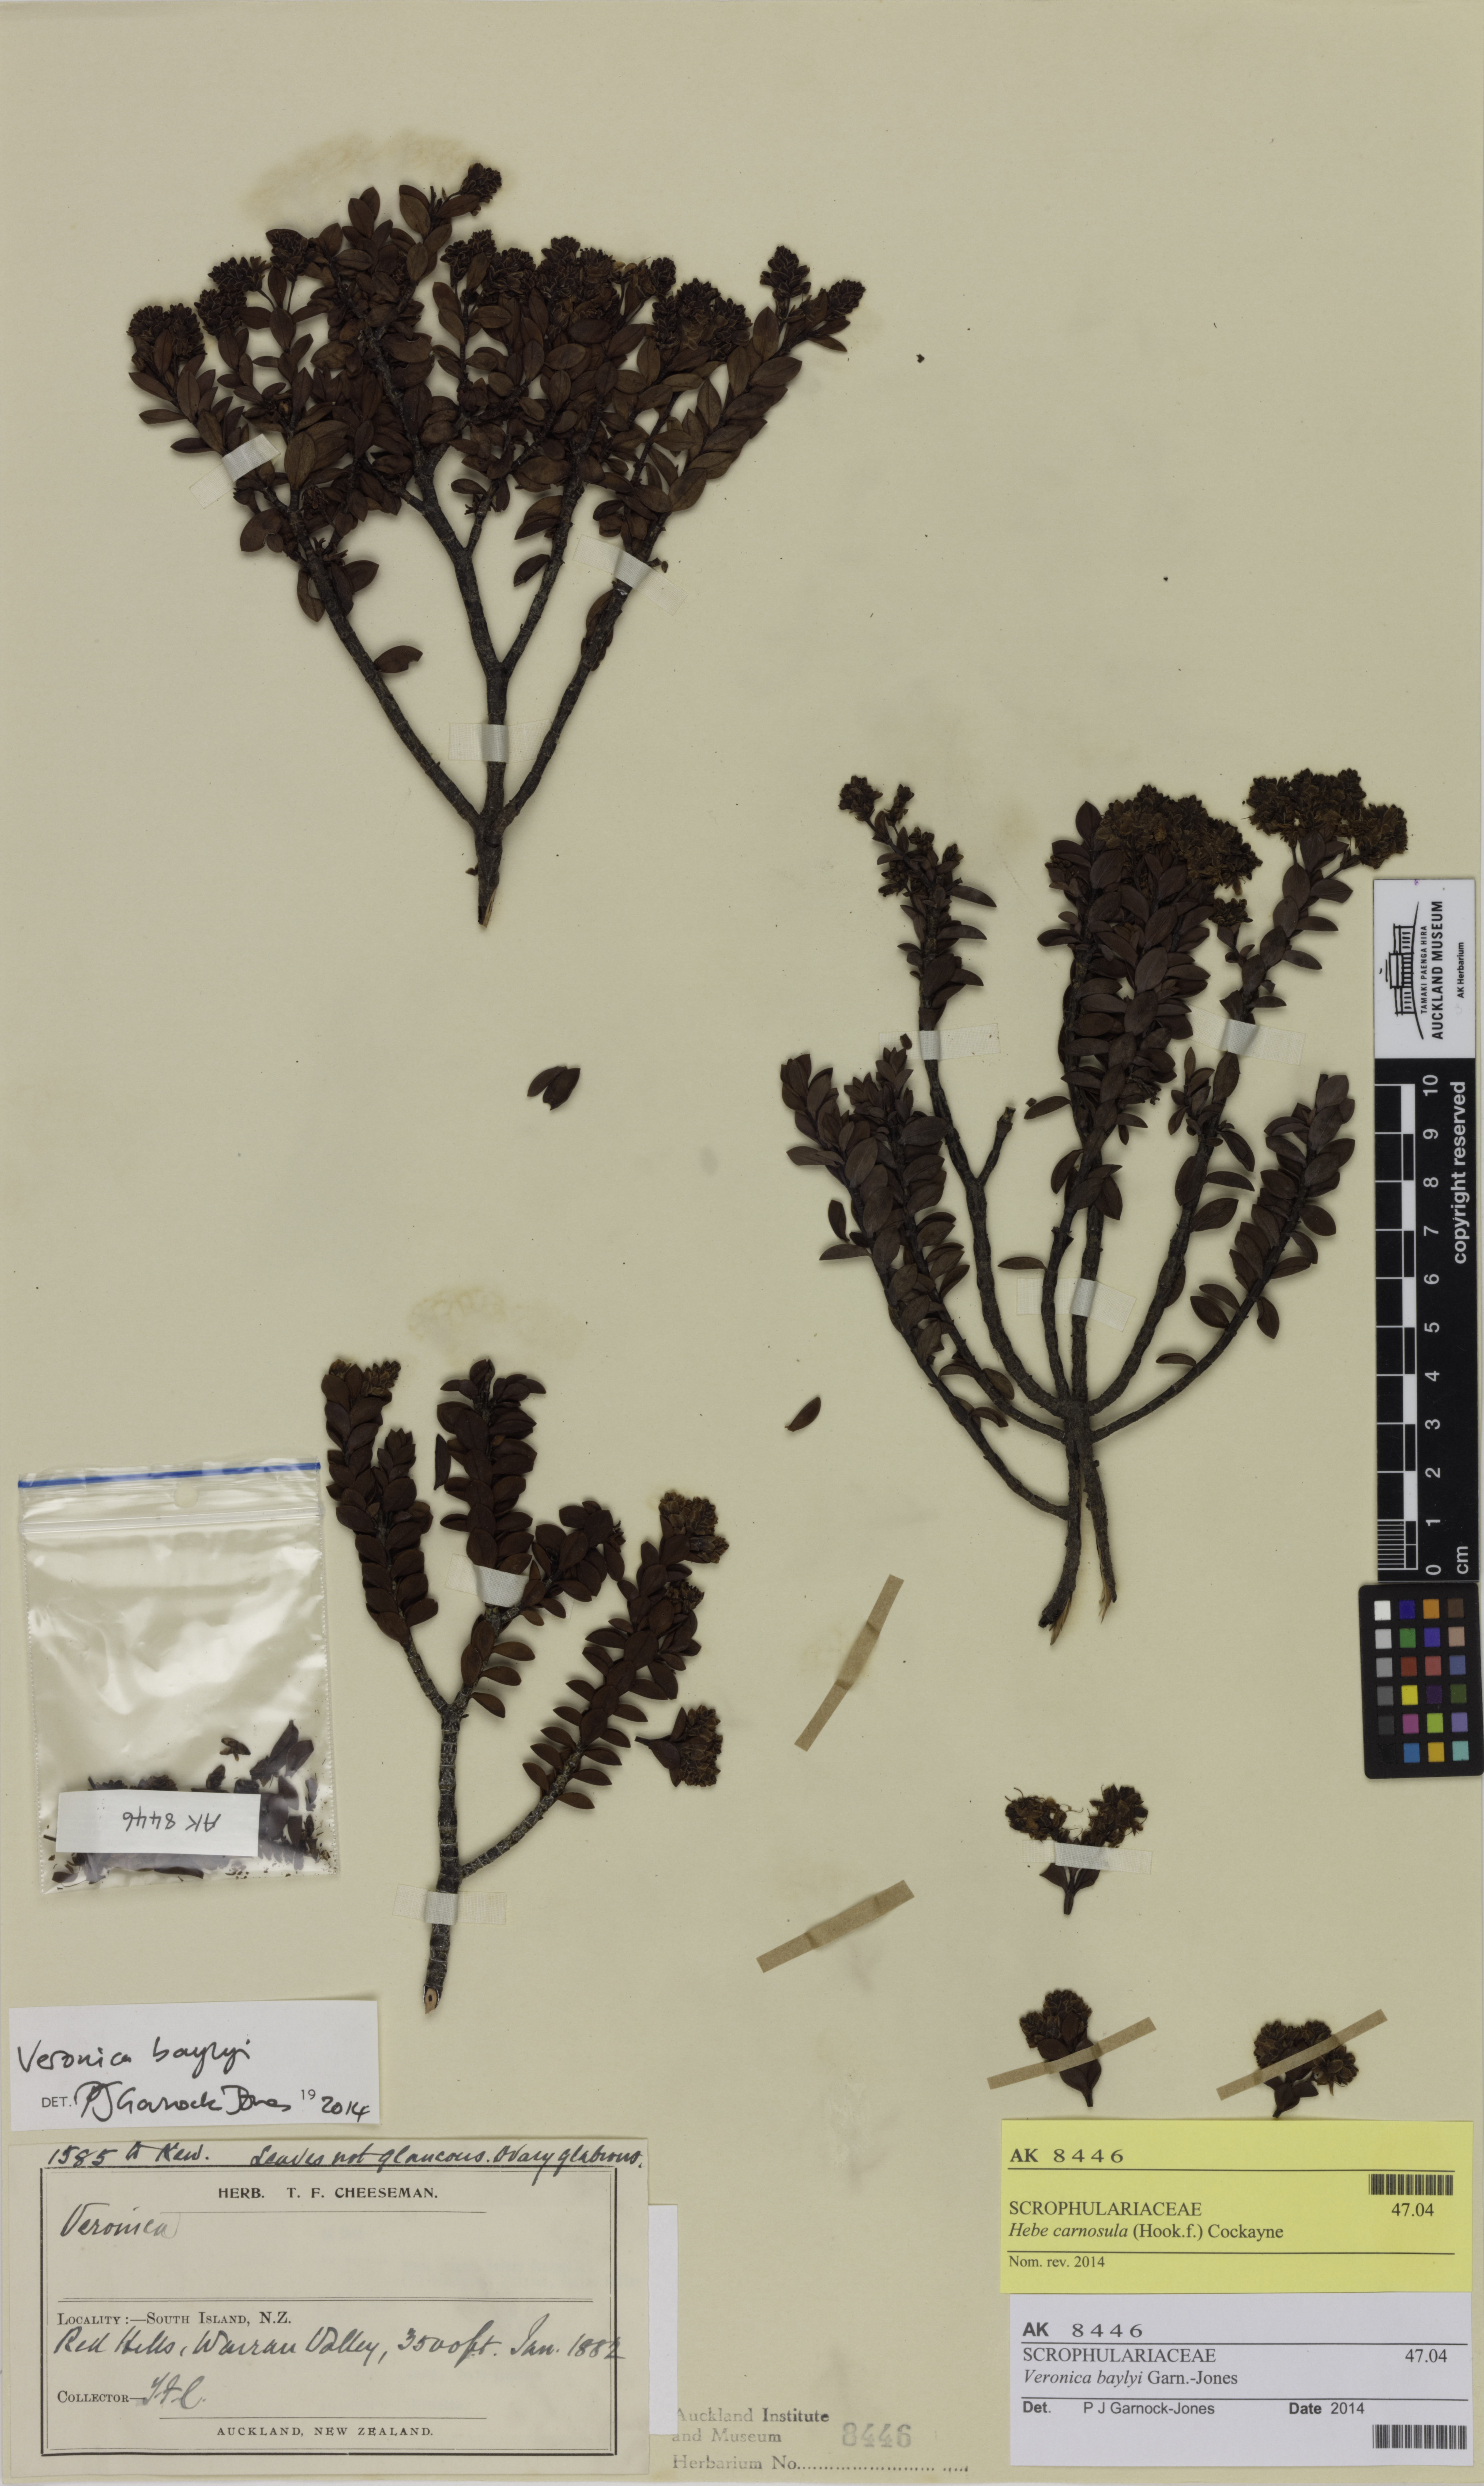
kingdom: Plantae
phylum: Tracheophyta
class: Magnoliopsida
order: Lamiales
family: Plantaginaceae
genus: Veronica
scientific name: Veronica baylyi
